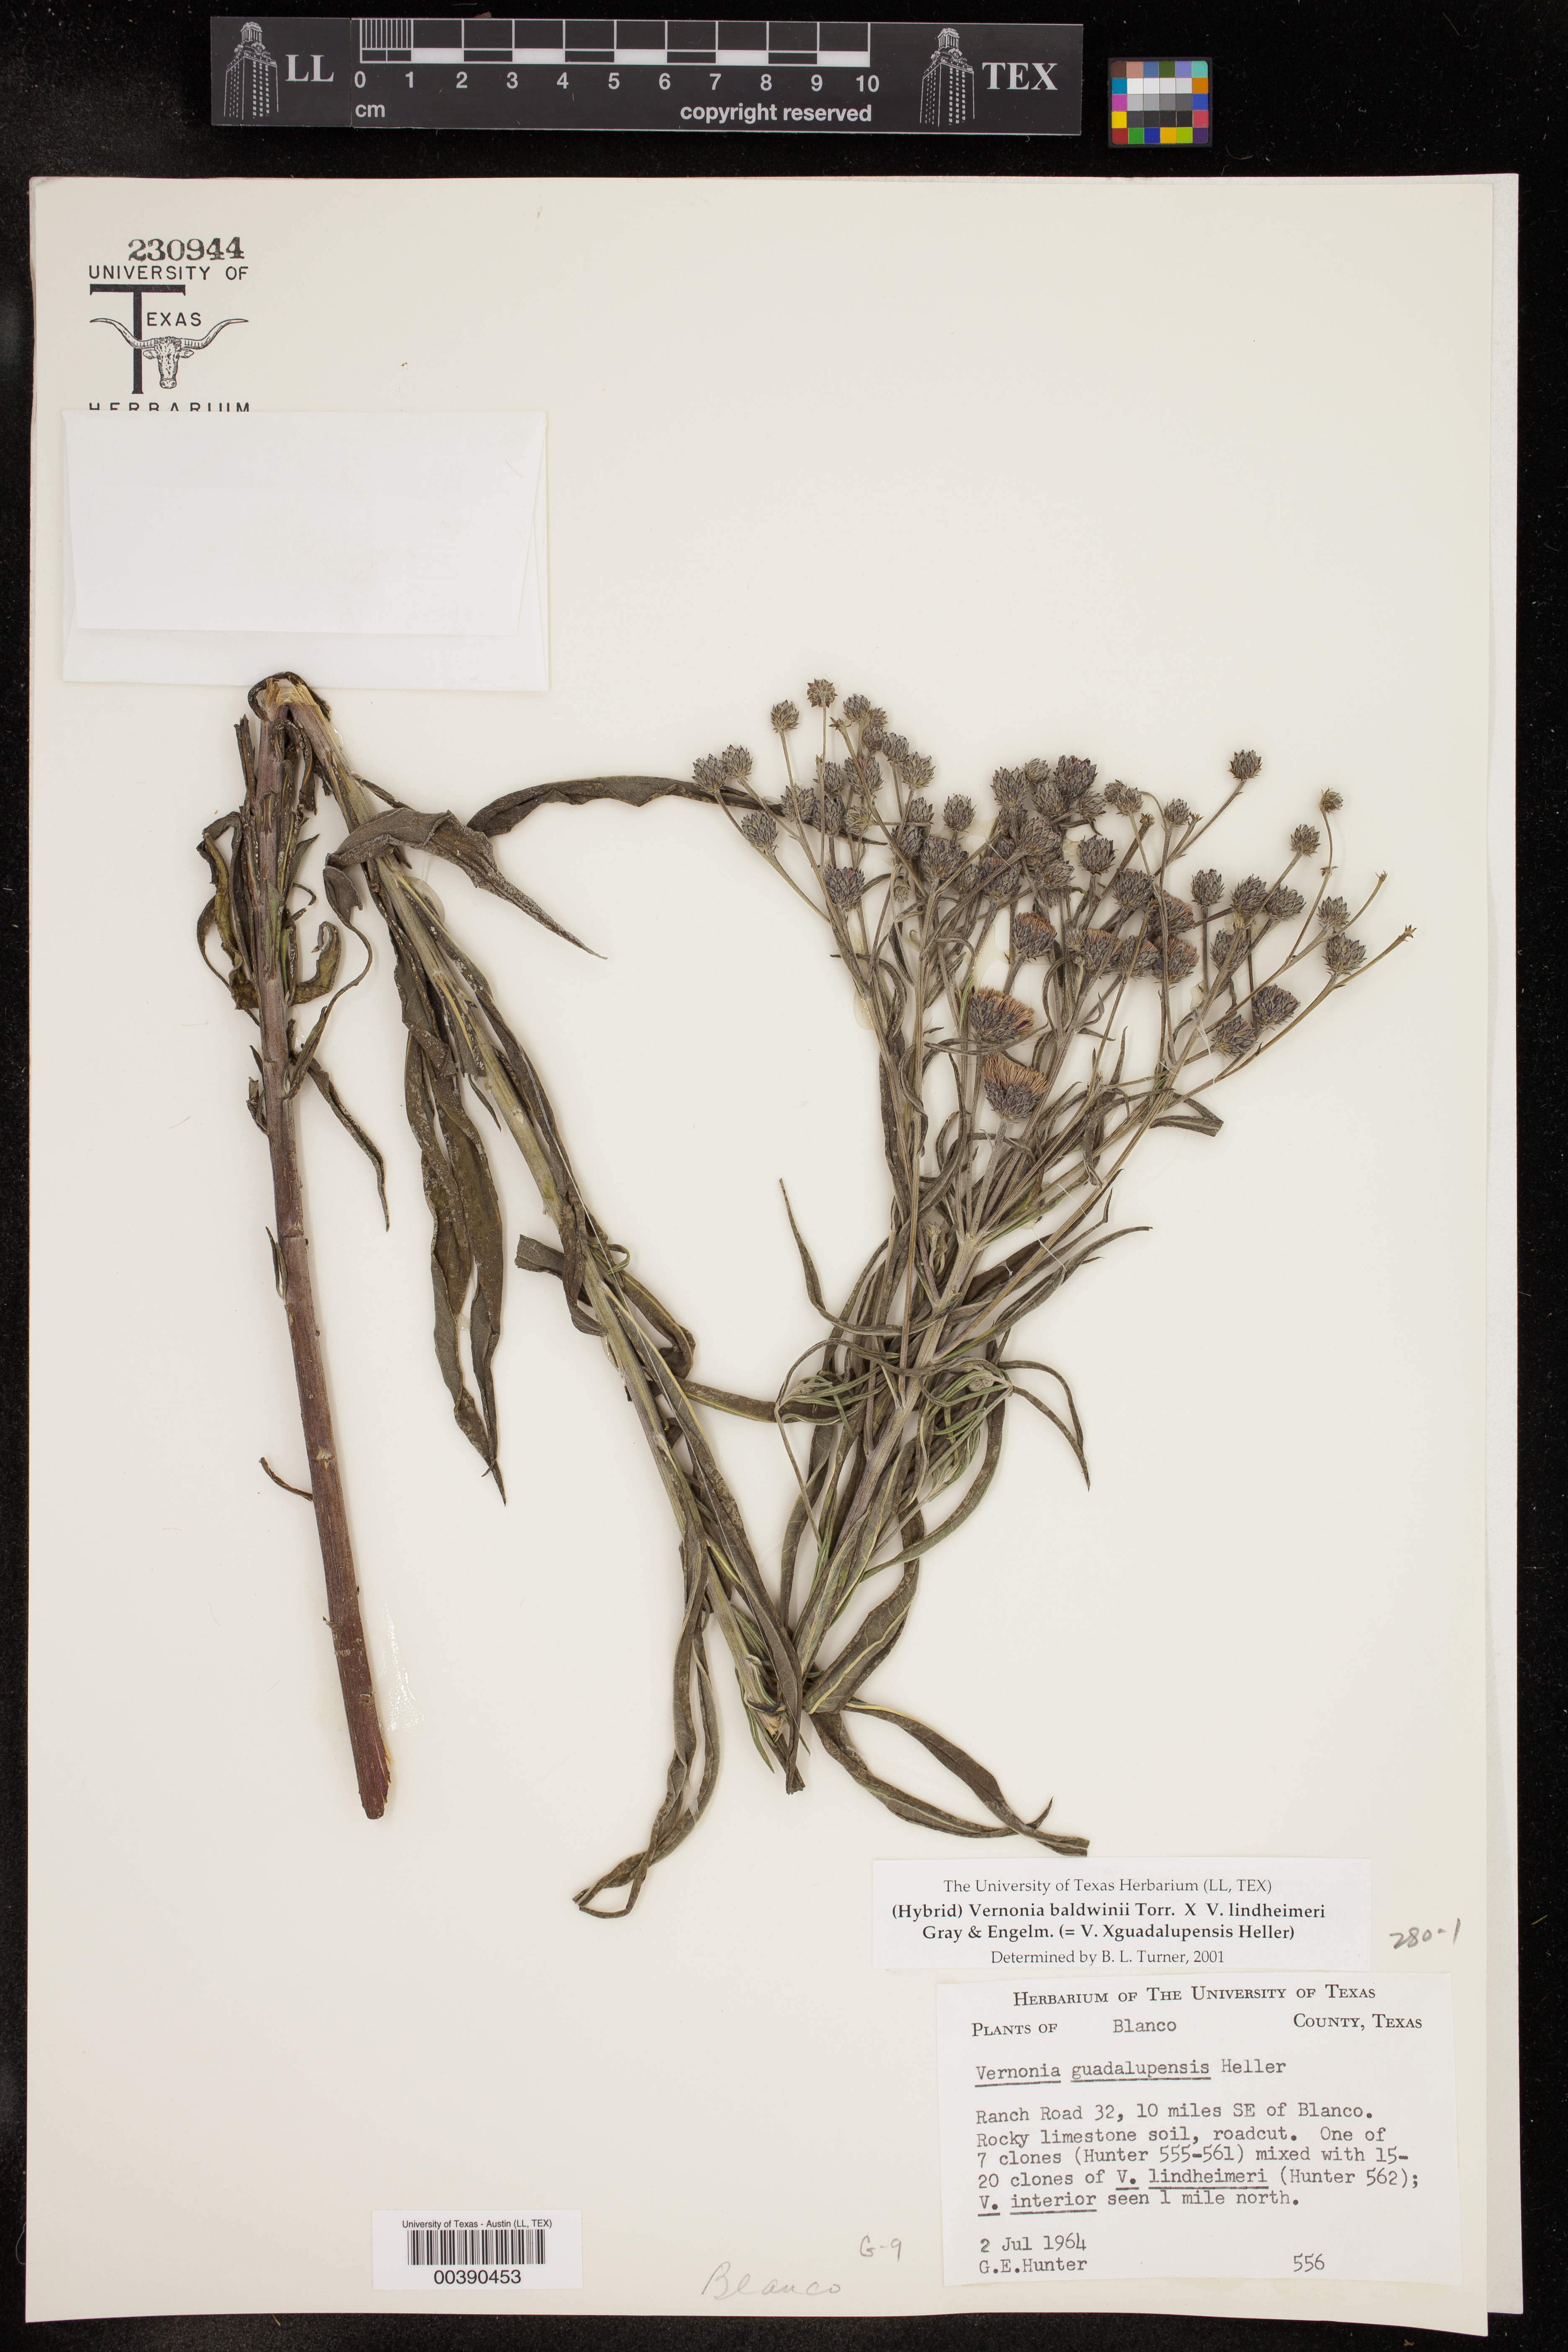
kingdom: Plantae
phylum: Tracheophyta
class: Magnoliopsida
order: Asterales
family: Asteraceae
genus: Vernonia
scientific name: Vernonia
